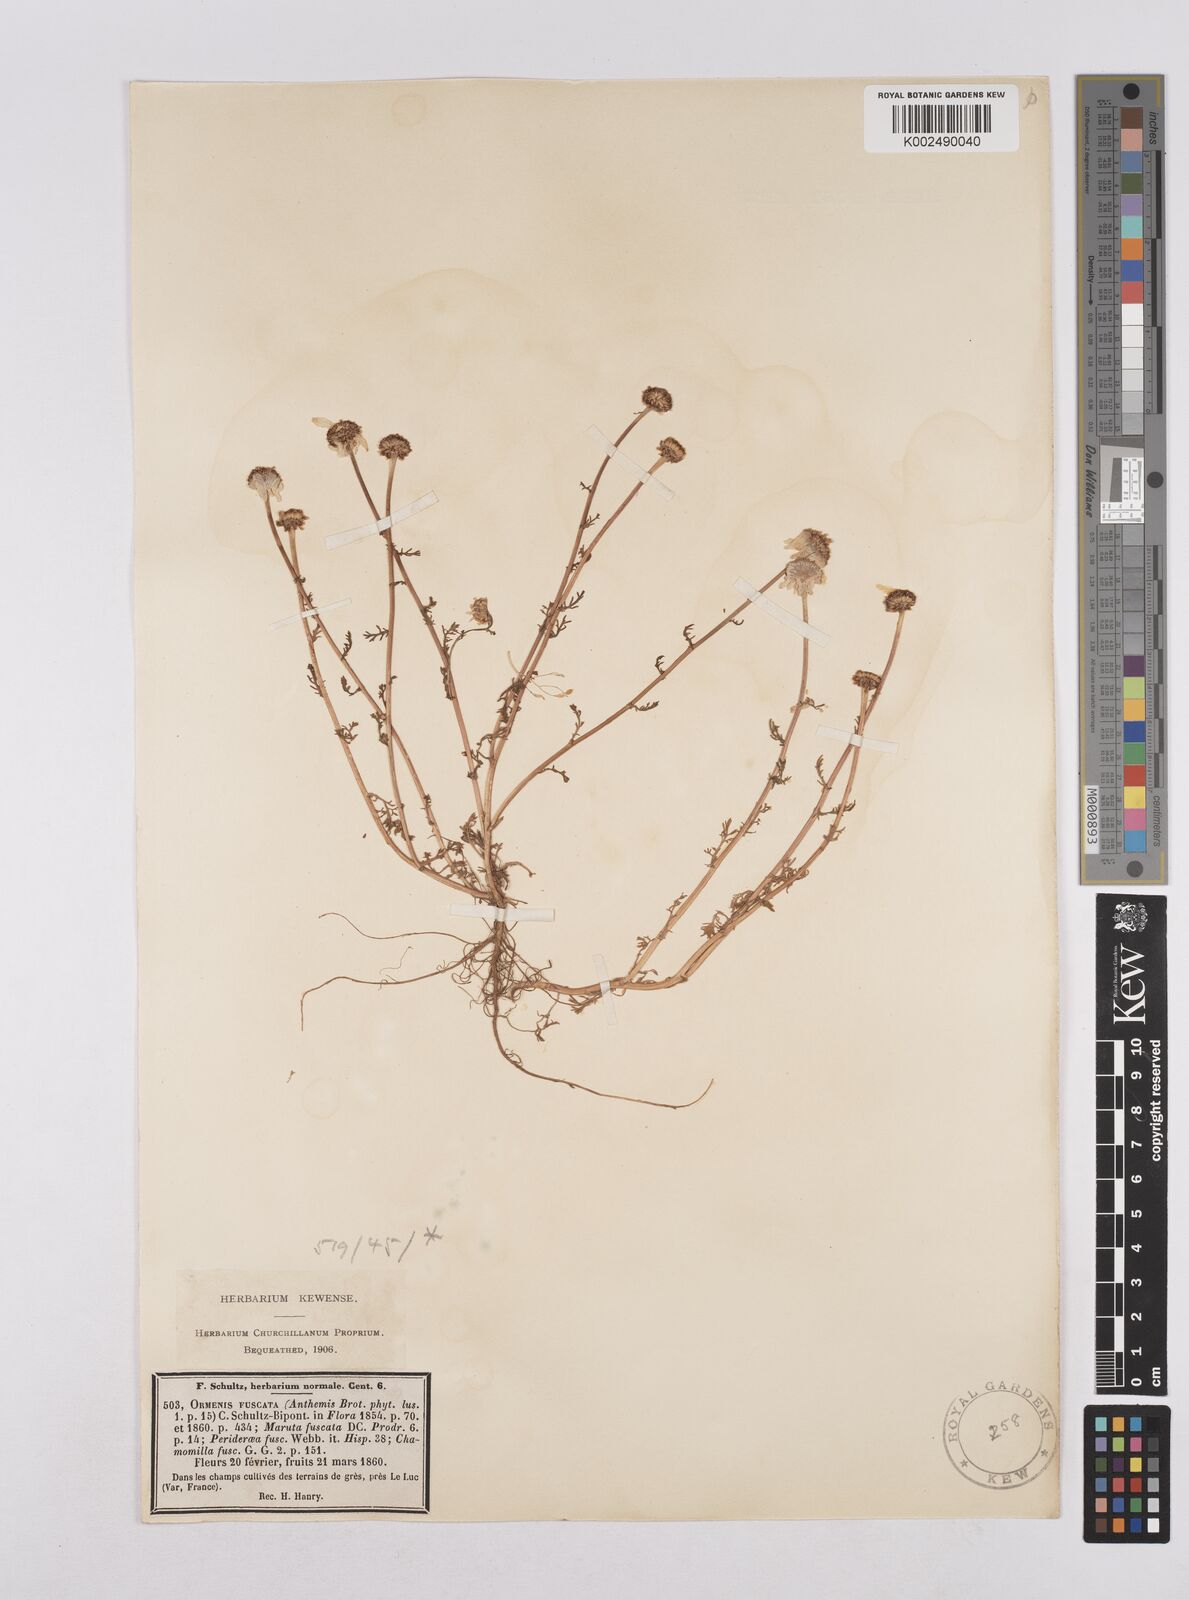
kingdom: Plantae
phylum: Tracheophyta
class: Magnoliopsida
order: Asterales
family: Asteraceae
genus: Chamaemelum
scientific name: Chamaemelum fuscatum
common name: Chamomile
